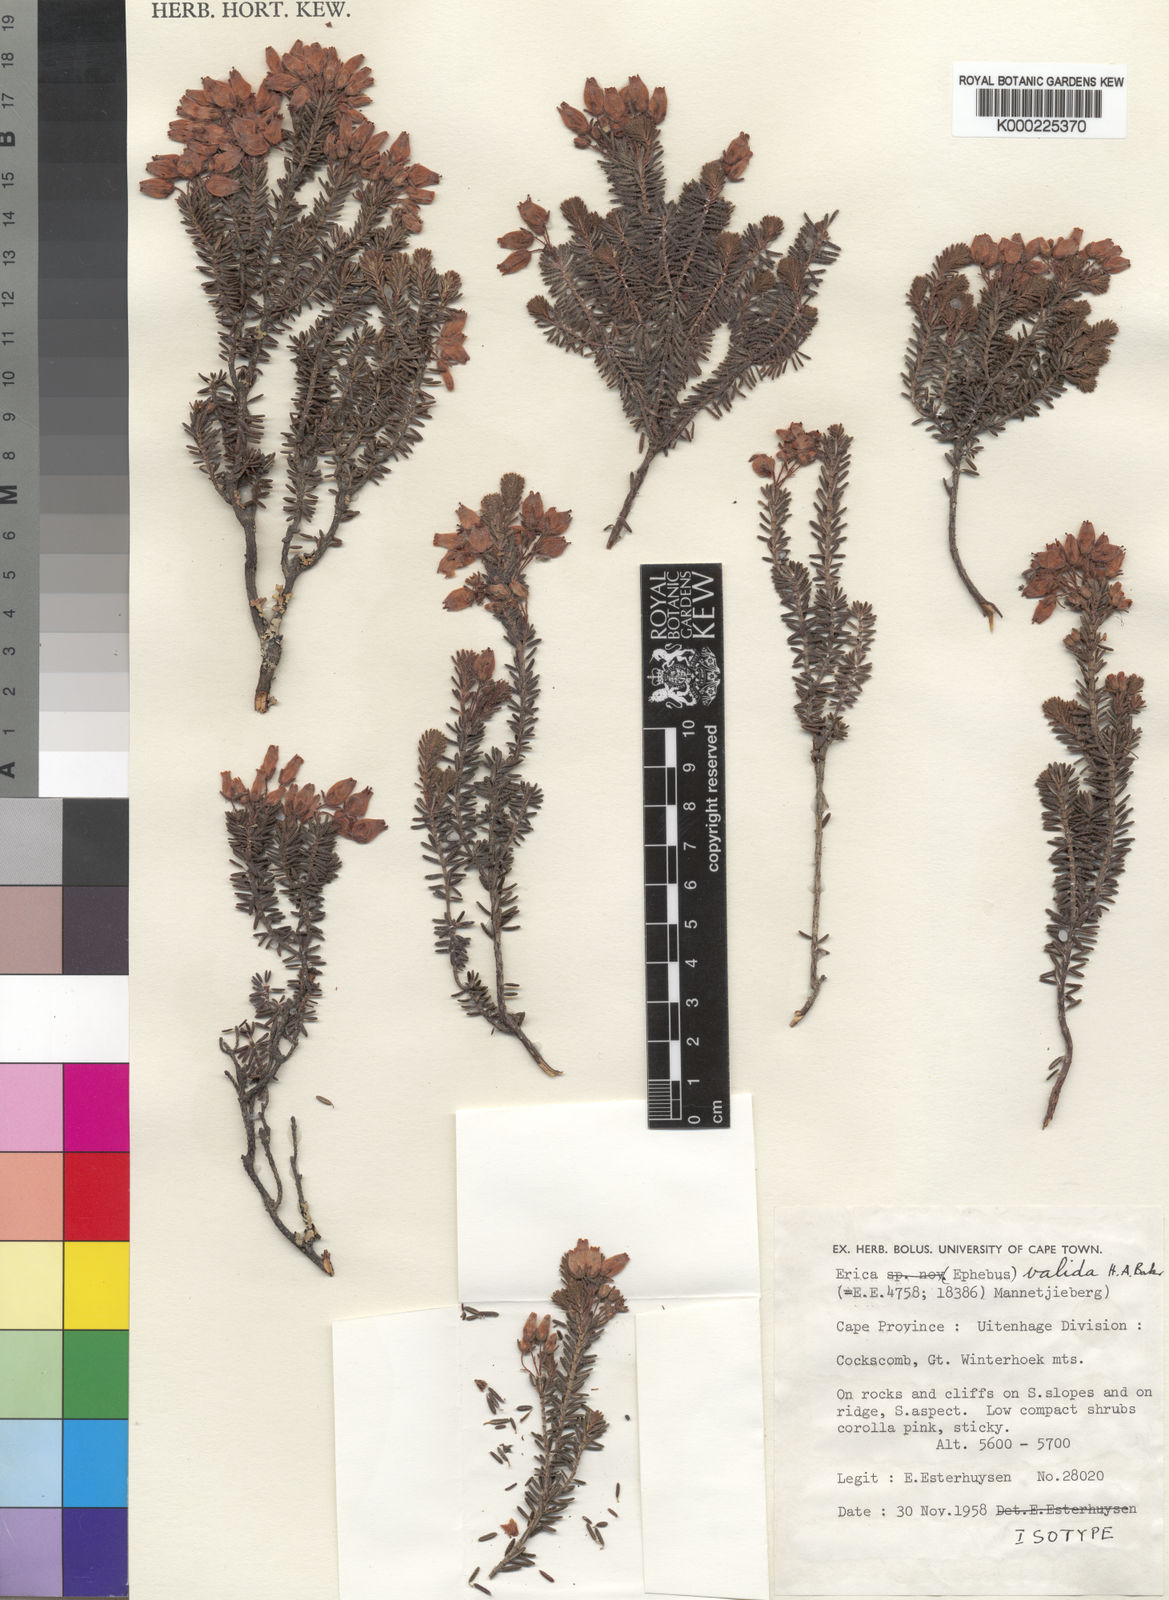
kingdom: Plantae
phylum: Tracheophyta
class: Magnoliopsida
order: Ericales
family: Ericaceae
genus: Erica
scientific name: Erica valida
